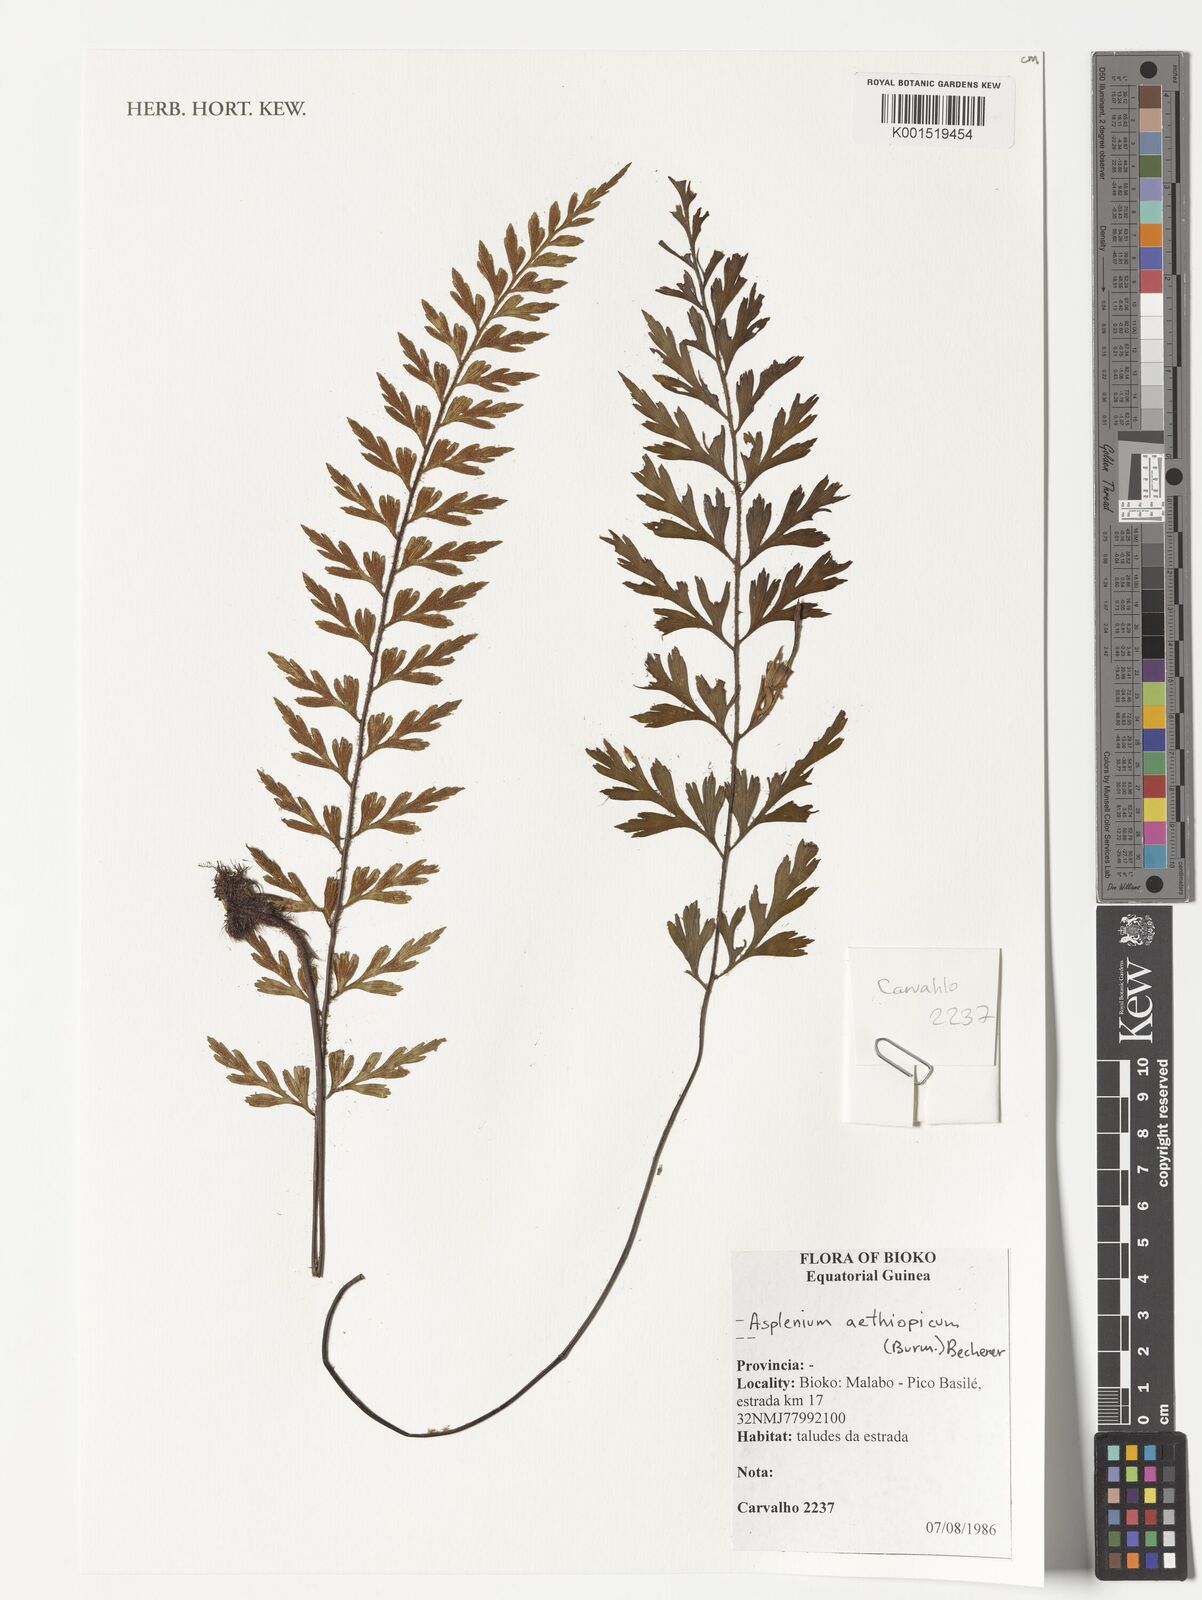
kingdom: Plantae
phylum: Tracheophyta
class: Polypodiopsida
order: Polypodiales
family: Aspleniaceae
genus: Asplenium
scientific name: Asplenium aethiopicum
